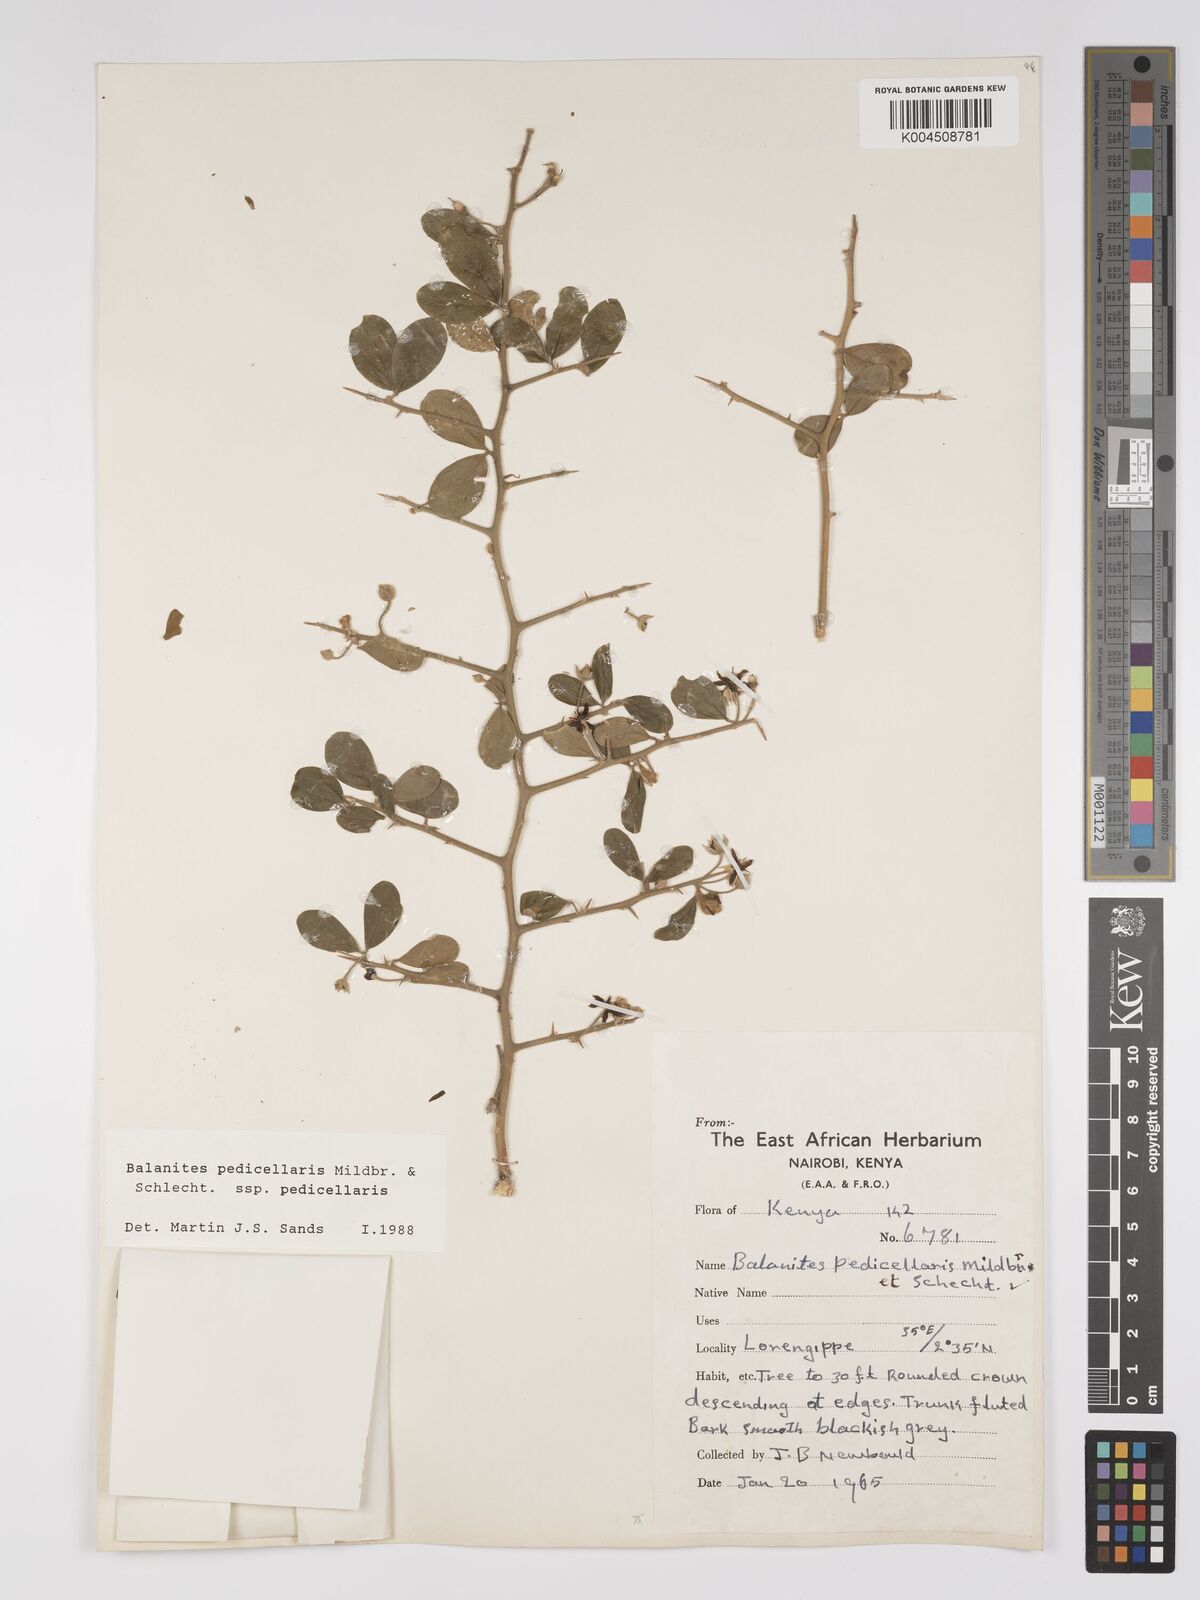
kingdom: Plantae
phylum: Tracheophyta
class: Magnoliopsida
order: Zygophyllales
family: Zygophyllaceae
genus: Balanites
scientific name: Balanites pedicellaris
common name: Small green-thorn
